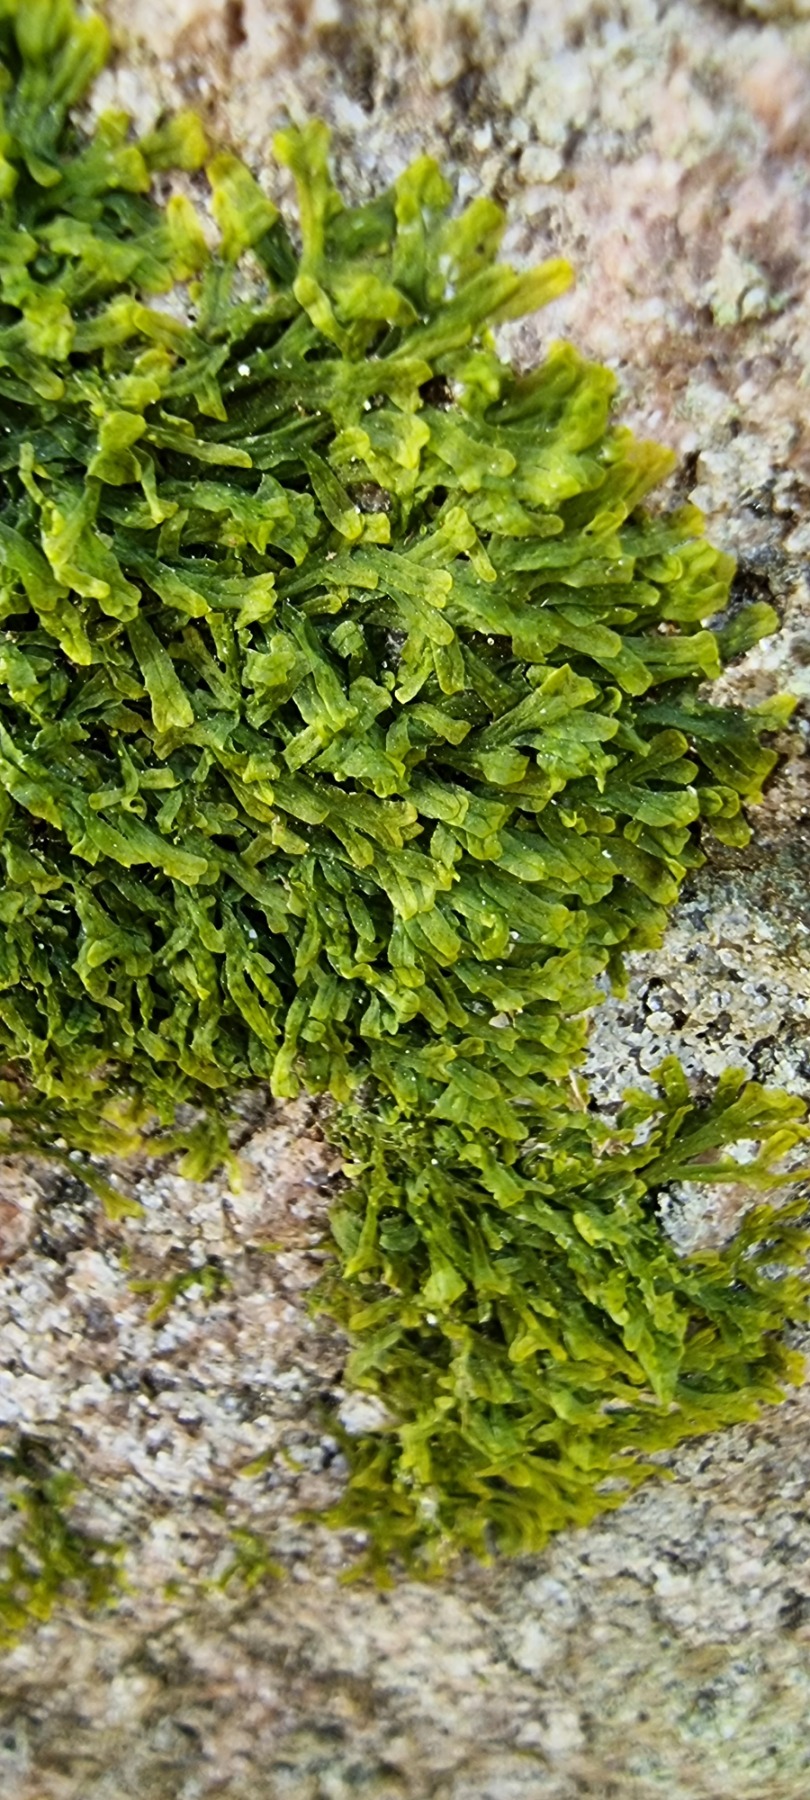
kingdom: Plantae
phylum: Marchantiophyta
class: Jungermanniopsida
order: Metzgeriales
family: Metzgeriaceae
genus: Metzgeria
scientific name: Metzgeria furcata
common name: Almindelig gaffelløv
